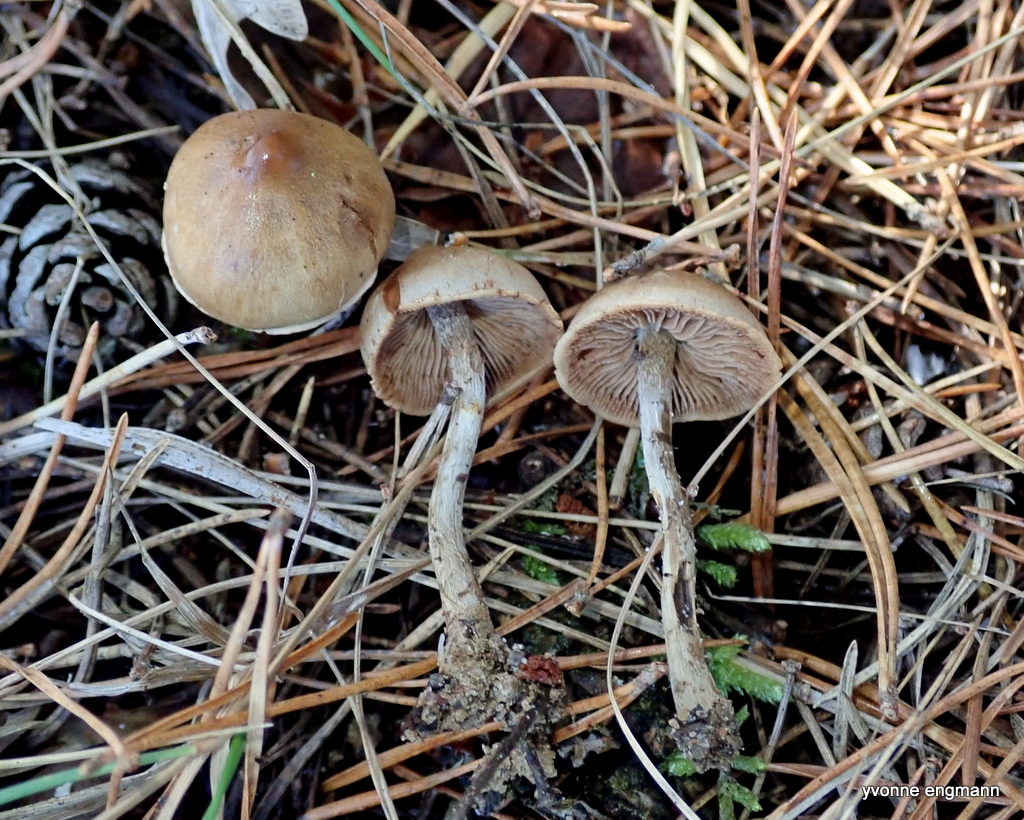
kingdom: Fungi
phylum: Basidiomycota
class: Agaricomycetes
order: Agaricales
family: Hymenogastraceae
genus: Hebeloma
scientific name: Hebeloma
